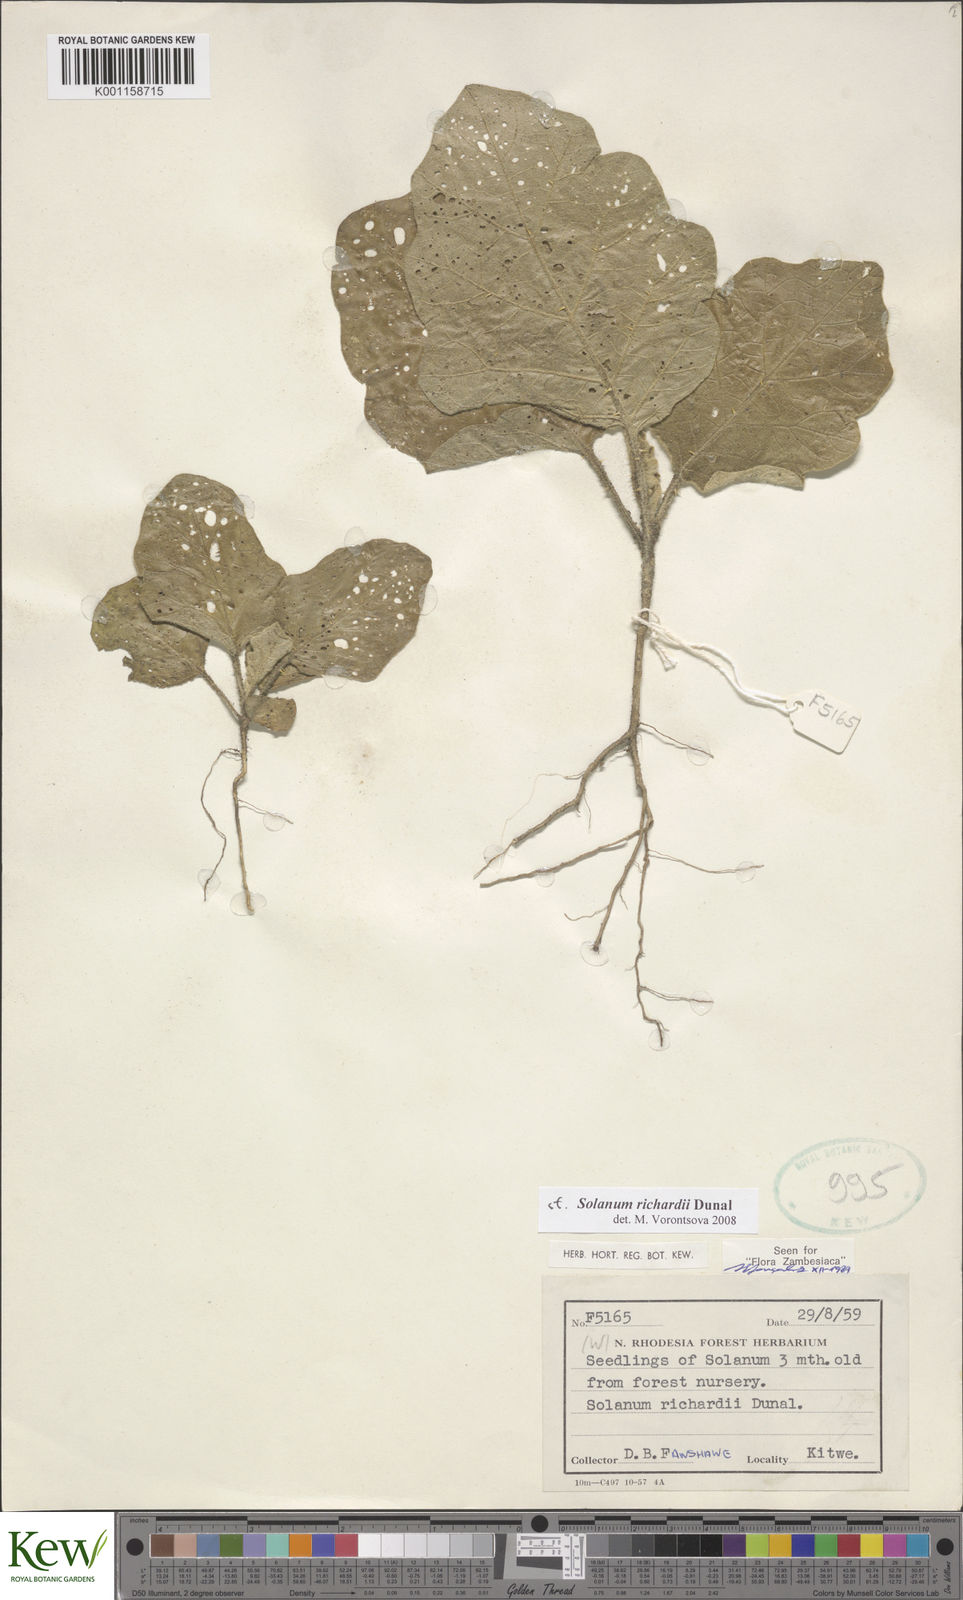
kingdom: Plantae
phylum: Tracheophyta
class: Magnoliopsida
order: Solanales
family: Solanaceae
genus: Solanum
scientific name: Solanum richardii
